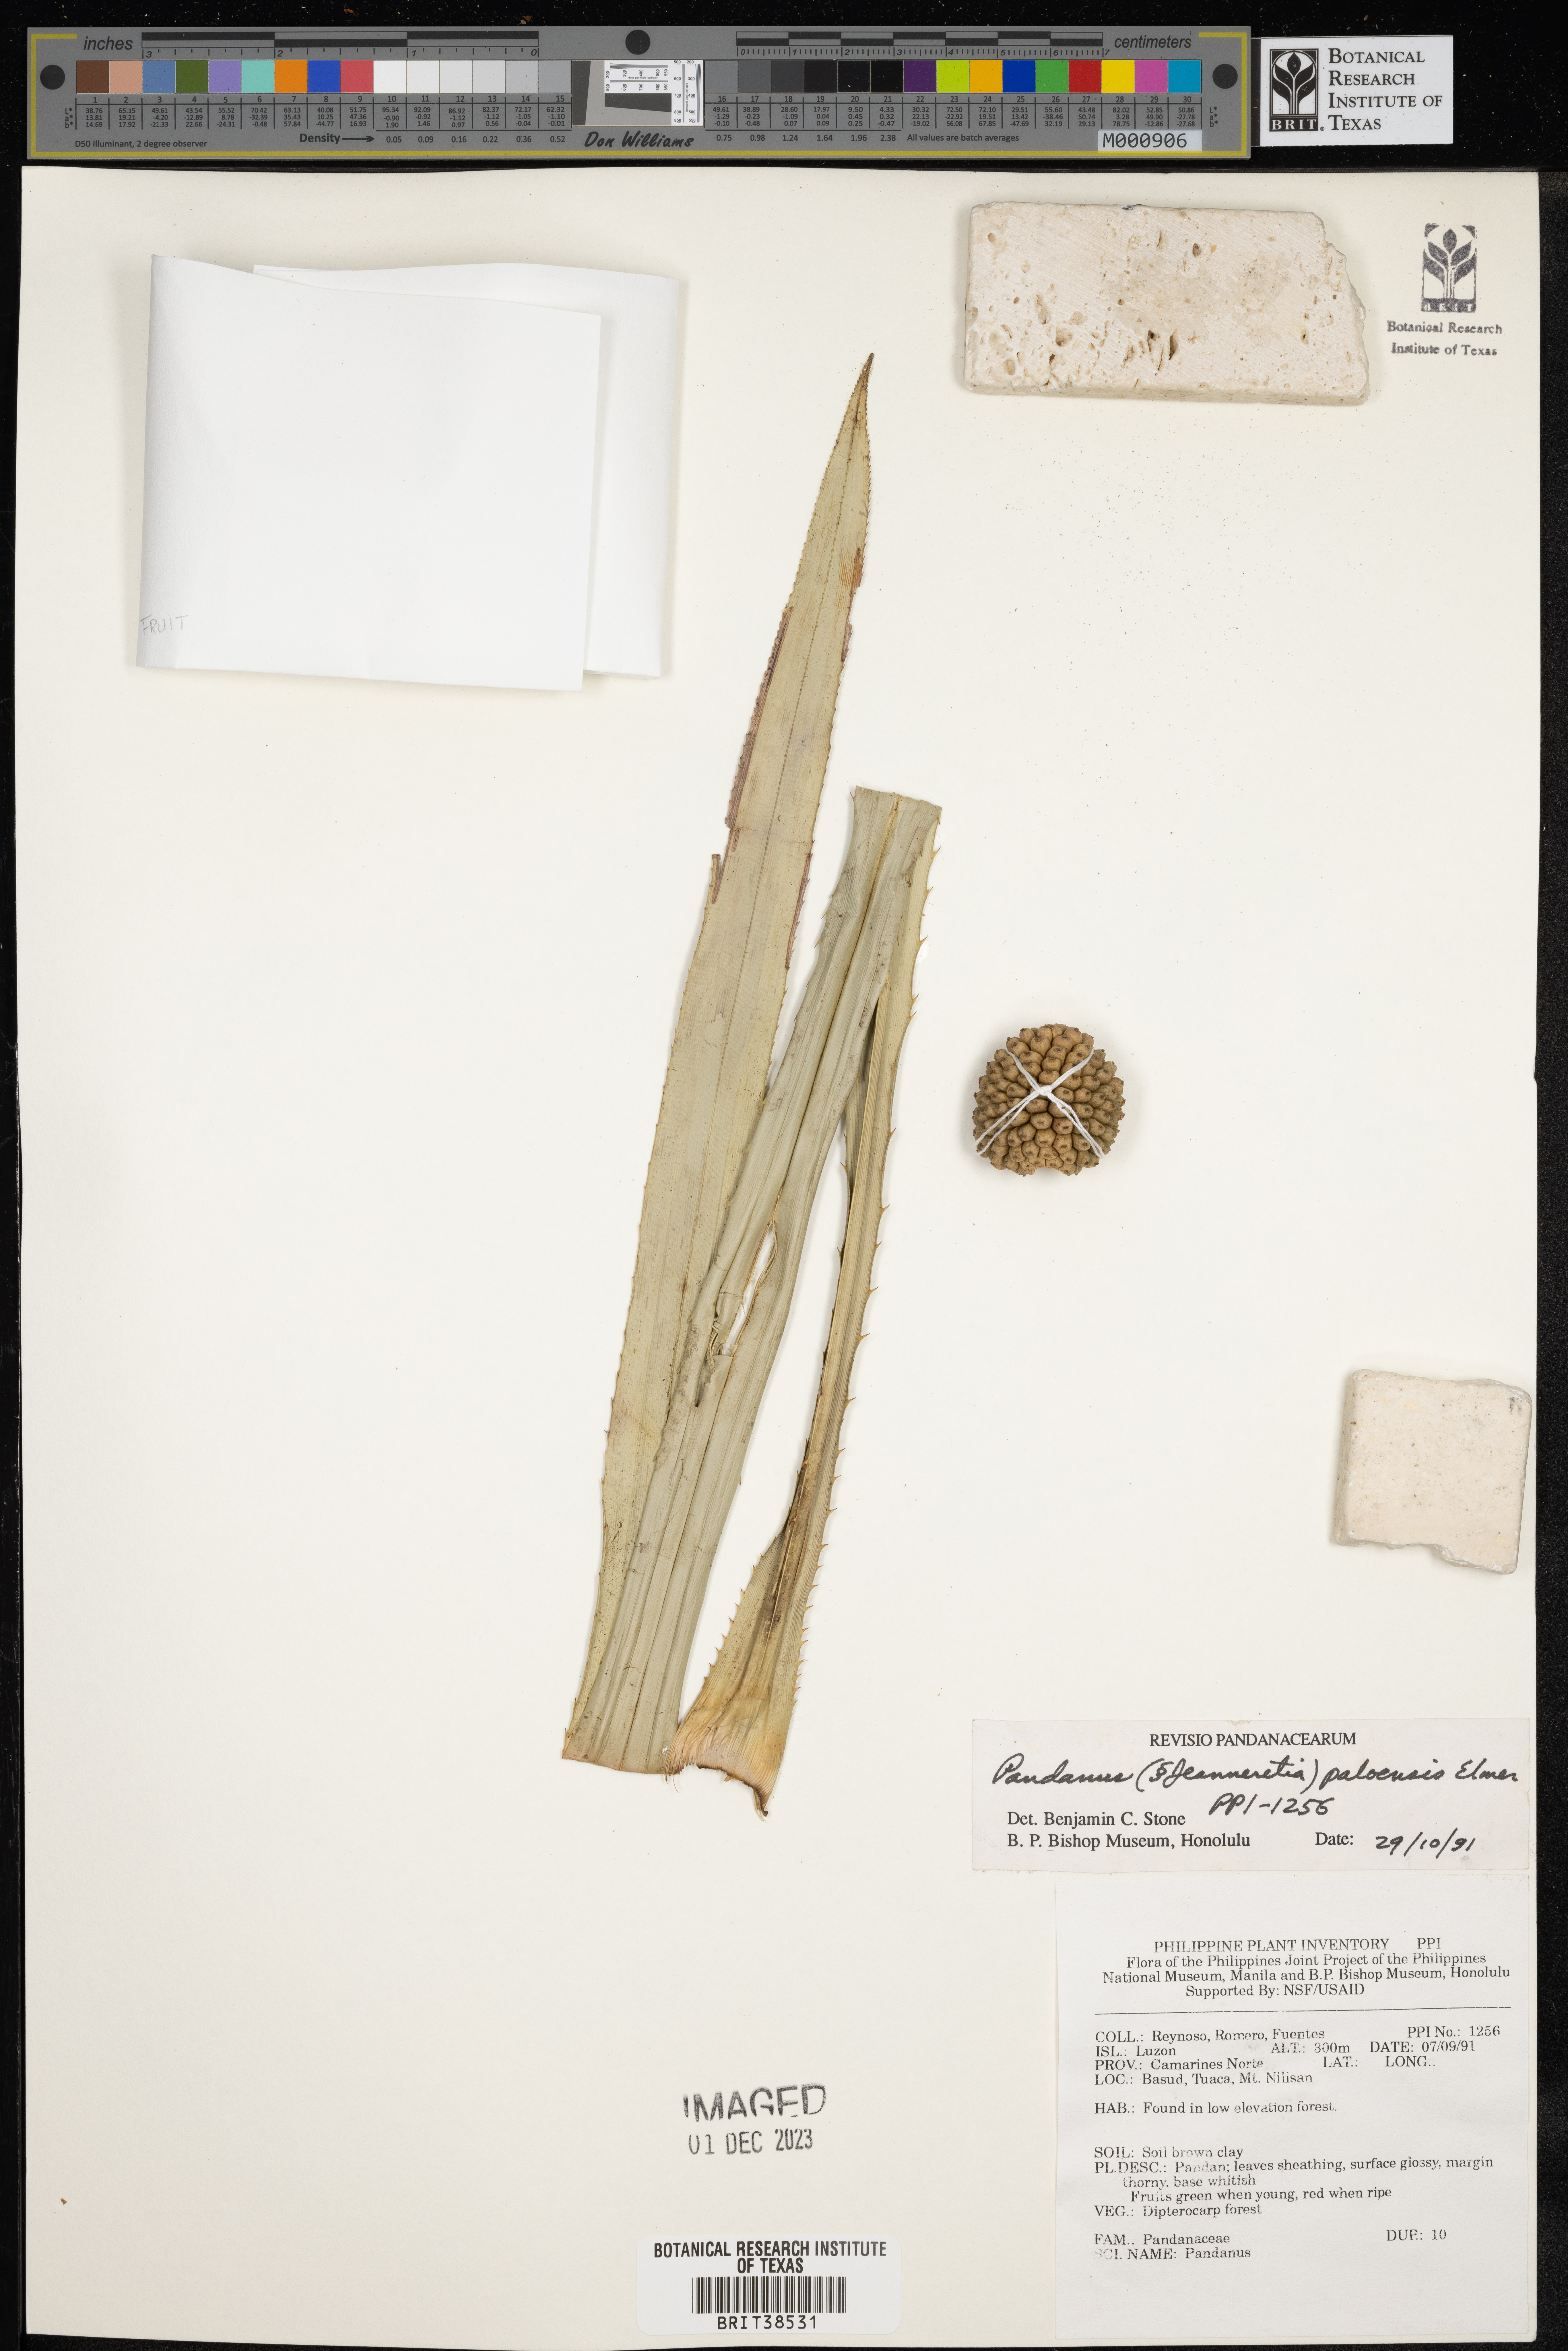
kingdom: Plantae
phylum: Tracheophyta
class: Liliopsida
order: Pandanales
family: Pandanaceae
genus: Pandanus
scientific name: Pandanus paloensis
